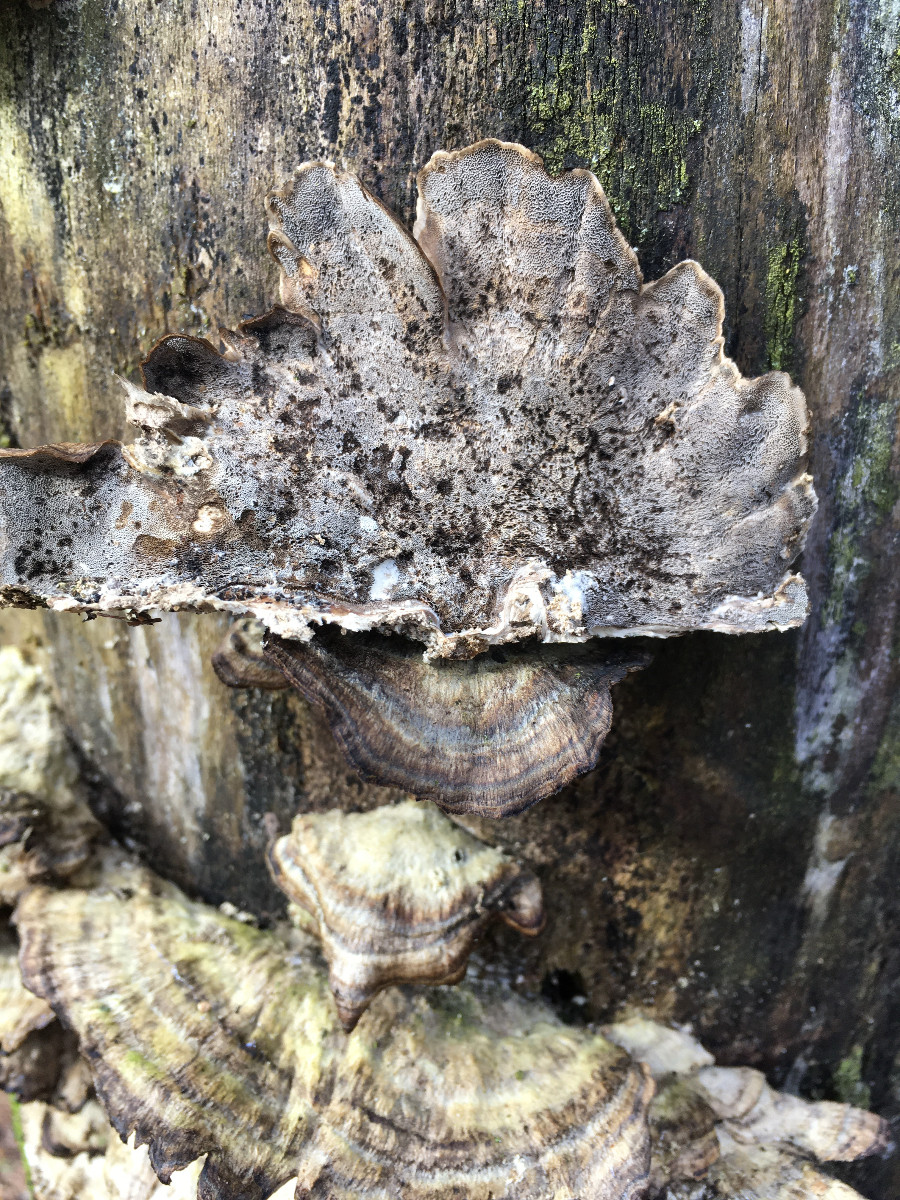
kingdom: Fungi
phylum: Basidiomycota
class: Agaricomycetes
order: Polyporales
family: Phanerochaetaceae
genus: Bjerkandera
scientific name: Bjerkandera adusta
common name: sveden sodporesvamp
